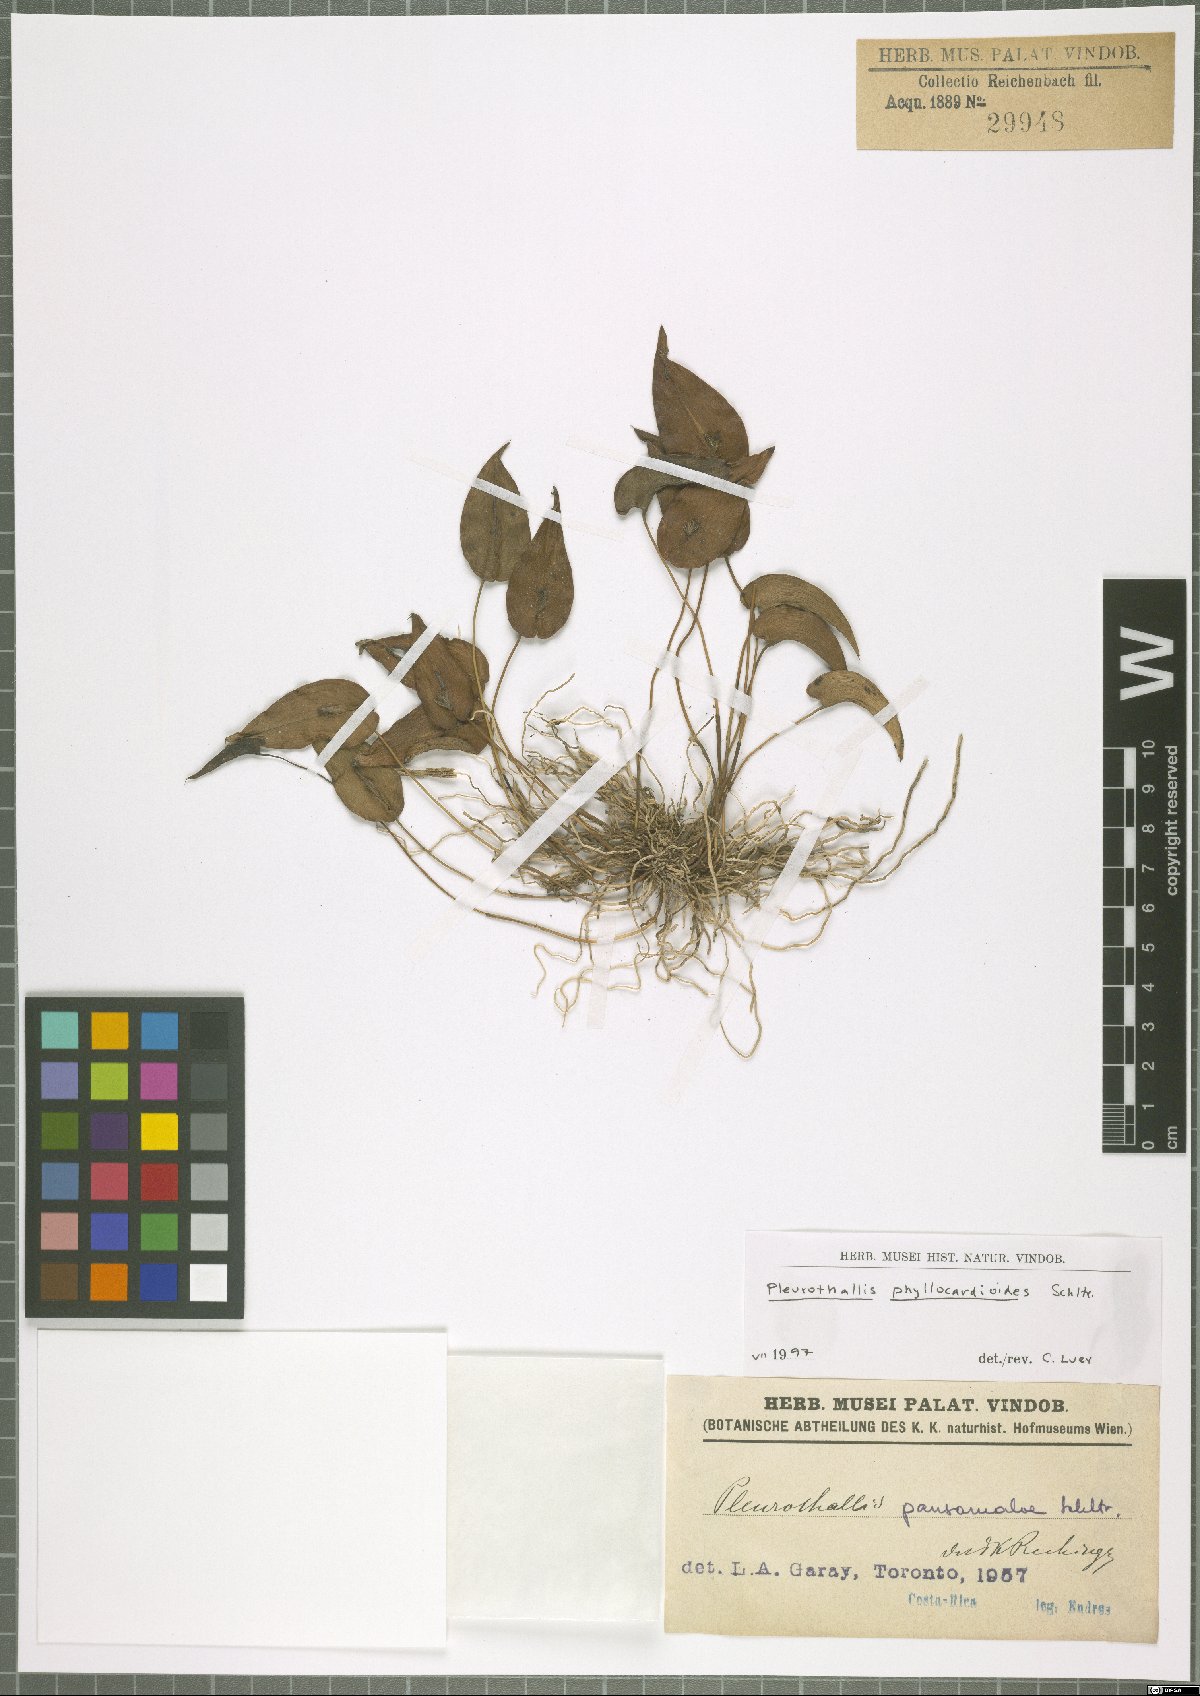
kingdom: Plantae
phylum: Tracheophyta
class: Liliopsida
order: Asparagales
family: Orchidaceae
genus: Pleurothallis
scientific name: Pleurothallis phyllocardioides
